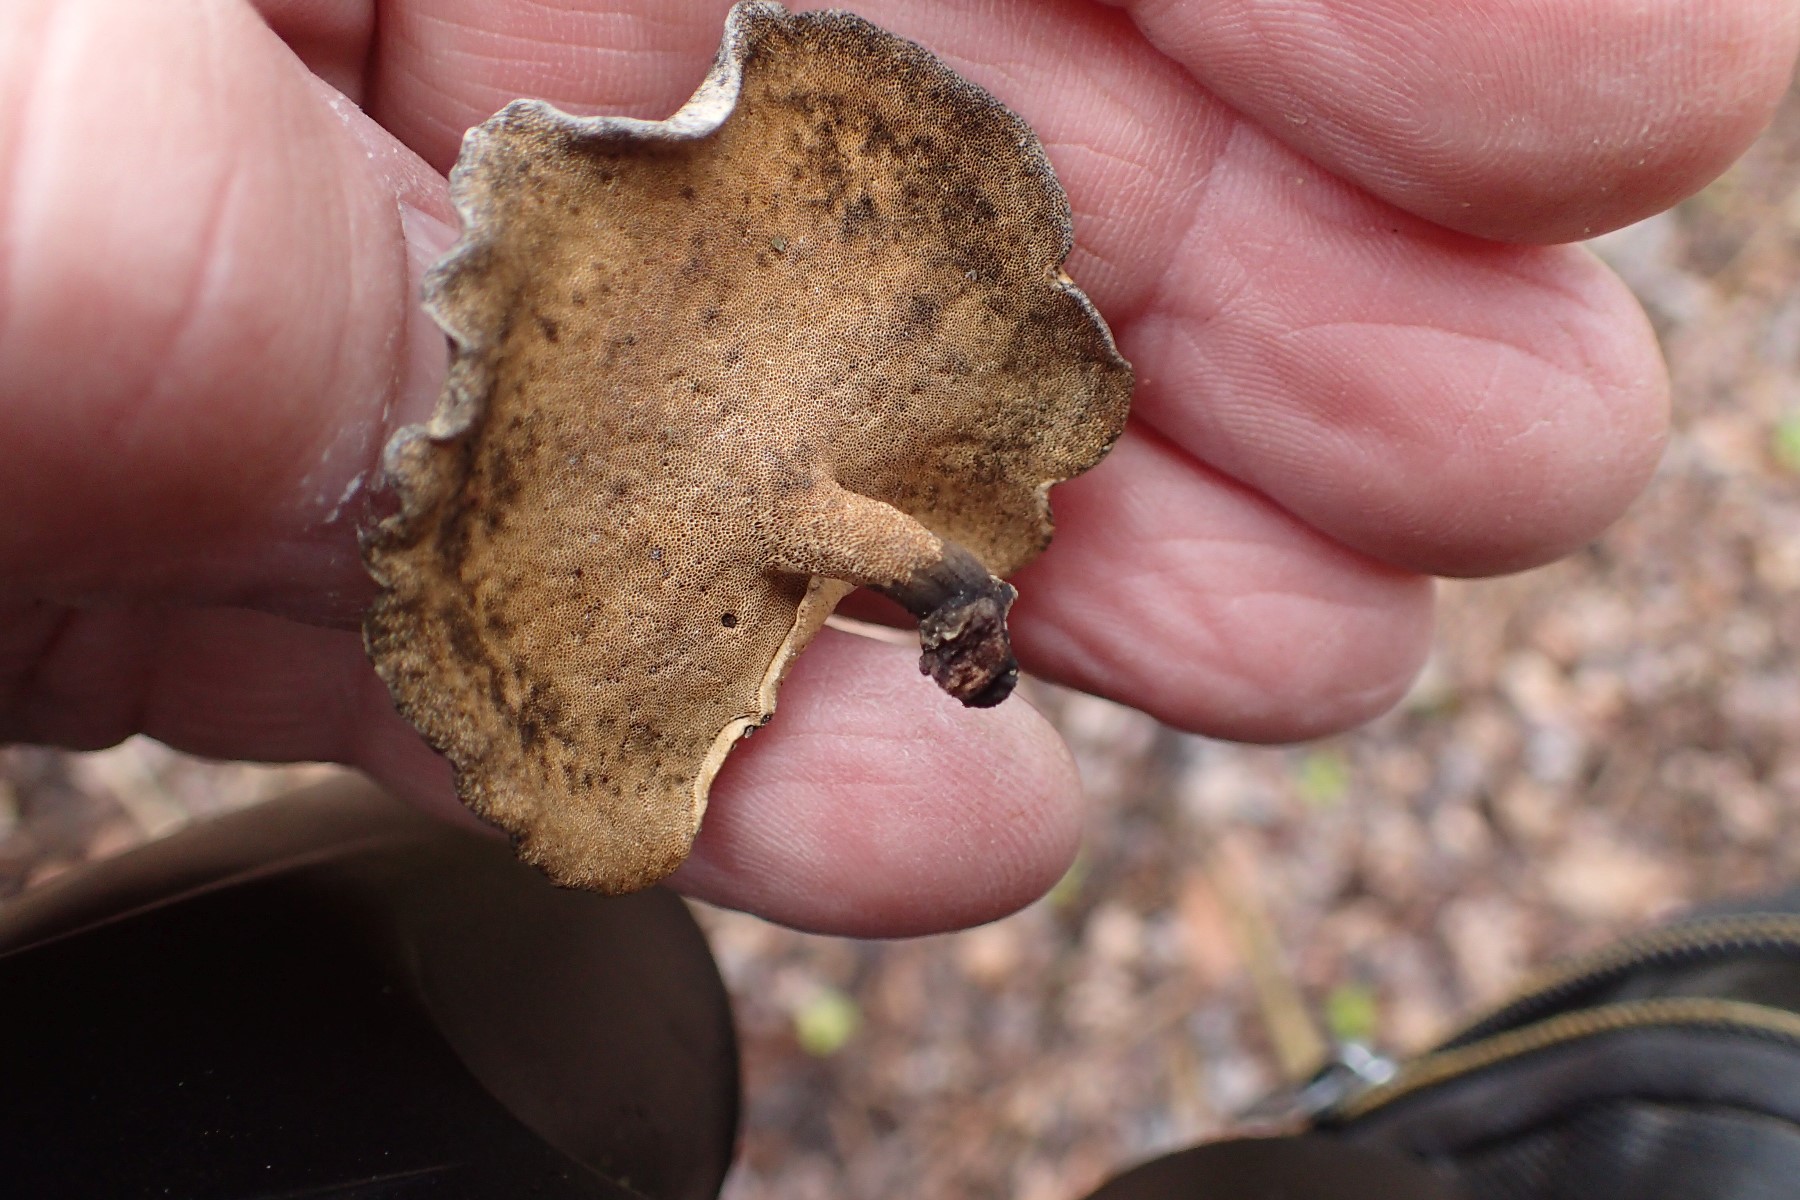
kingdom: Fungi
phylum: Basidiomycota
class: Agaricomycetes
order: Polyporales
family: Polyporaceae
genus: Cerioporus
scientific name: Cerioporus varius
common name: foranderlig stilkporesvamp
